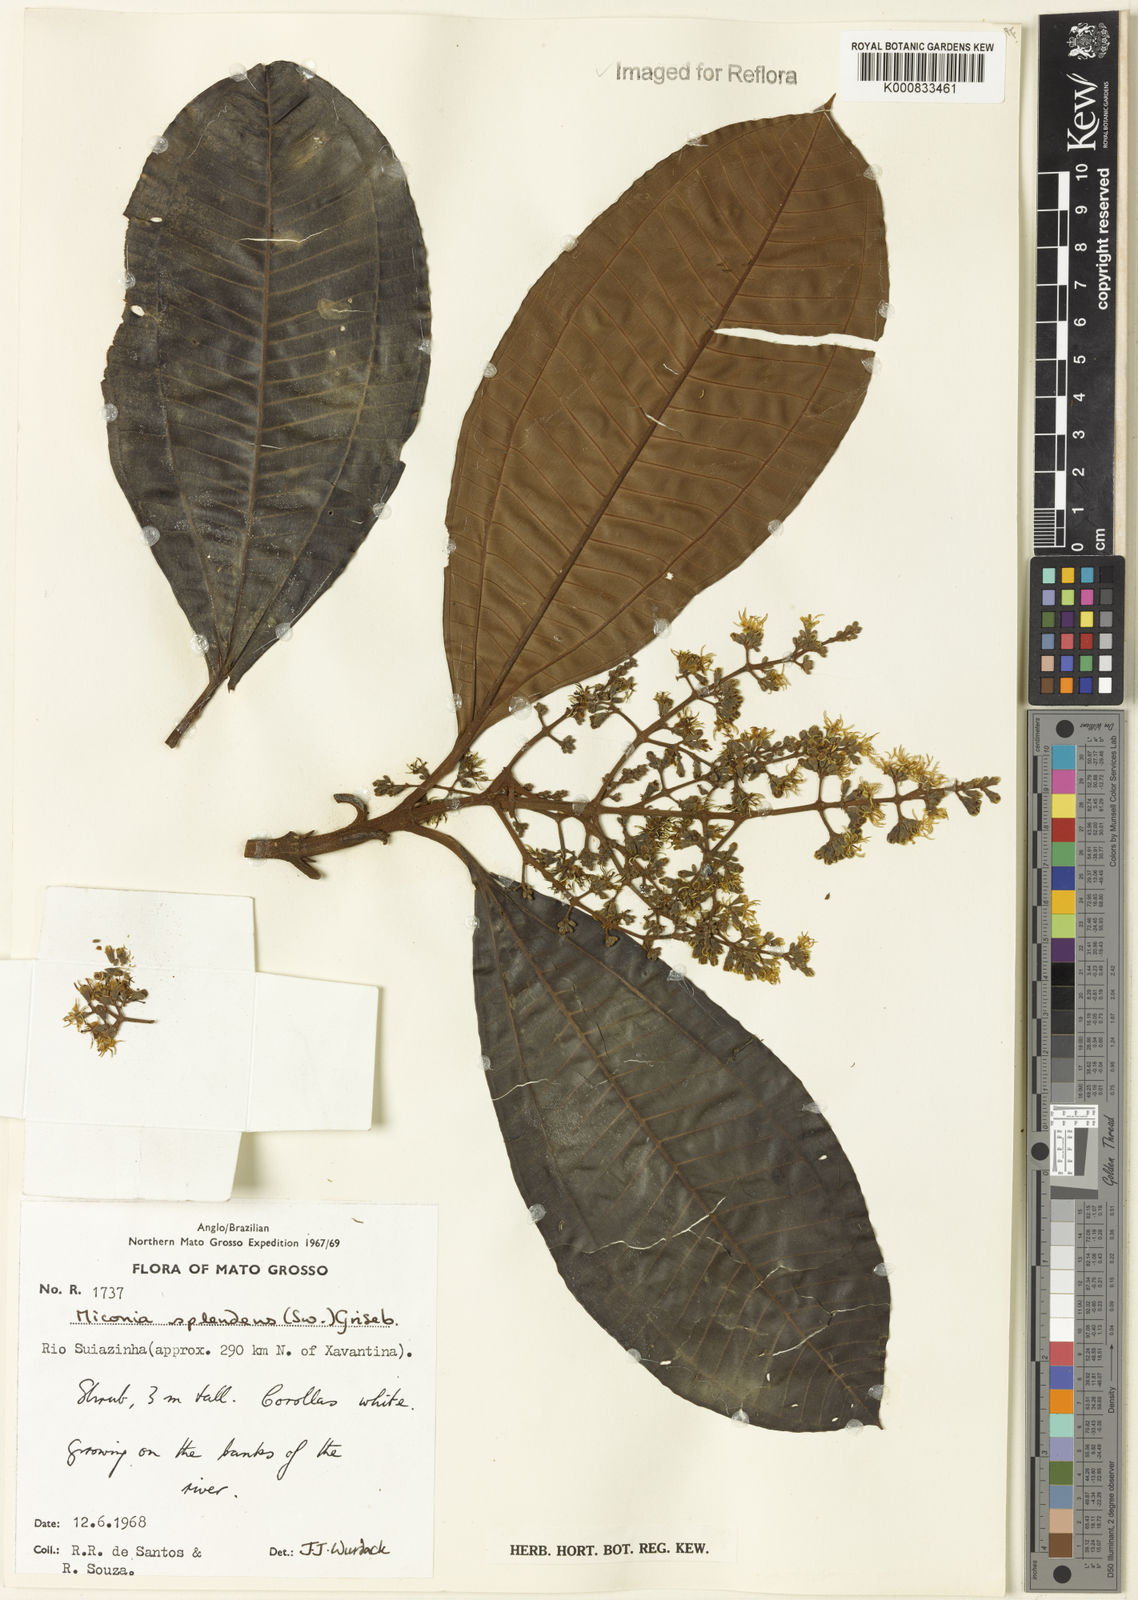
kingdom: Plantae
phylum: Tracheophyta
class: Magnoliopsida
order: Myrtales
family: Melastomataceae
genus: Miconia
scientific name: Miconia splendens
